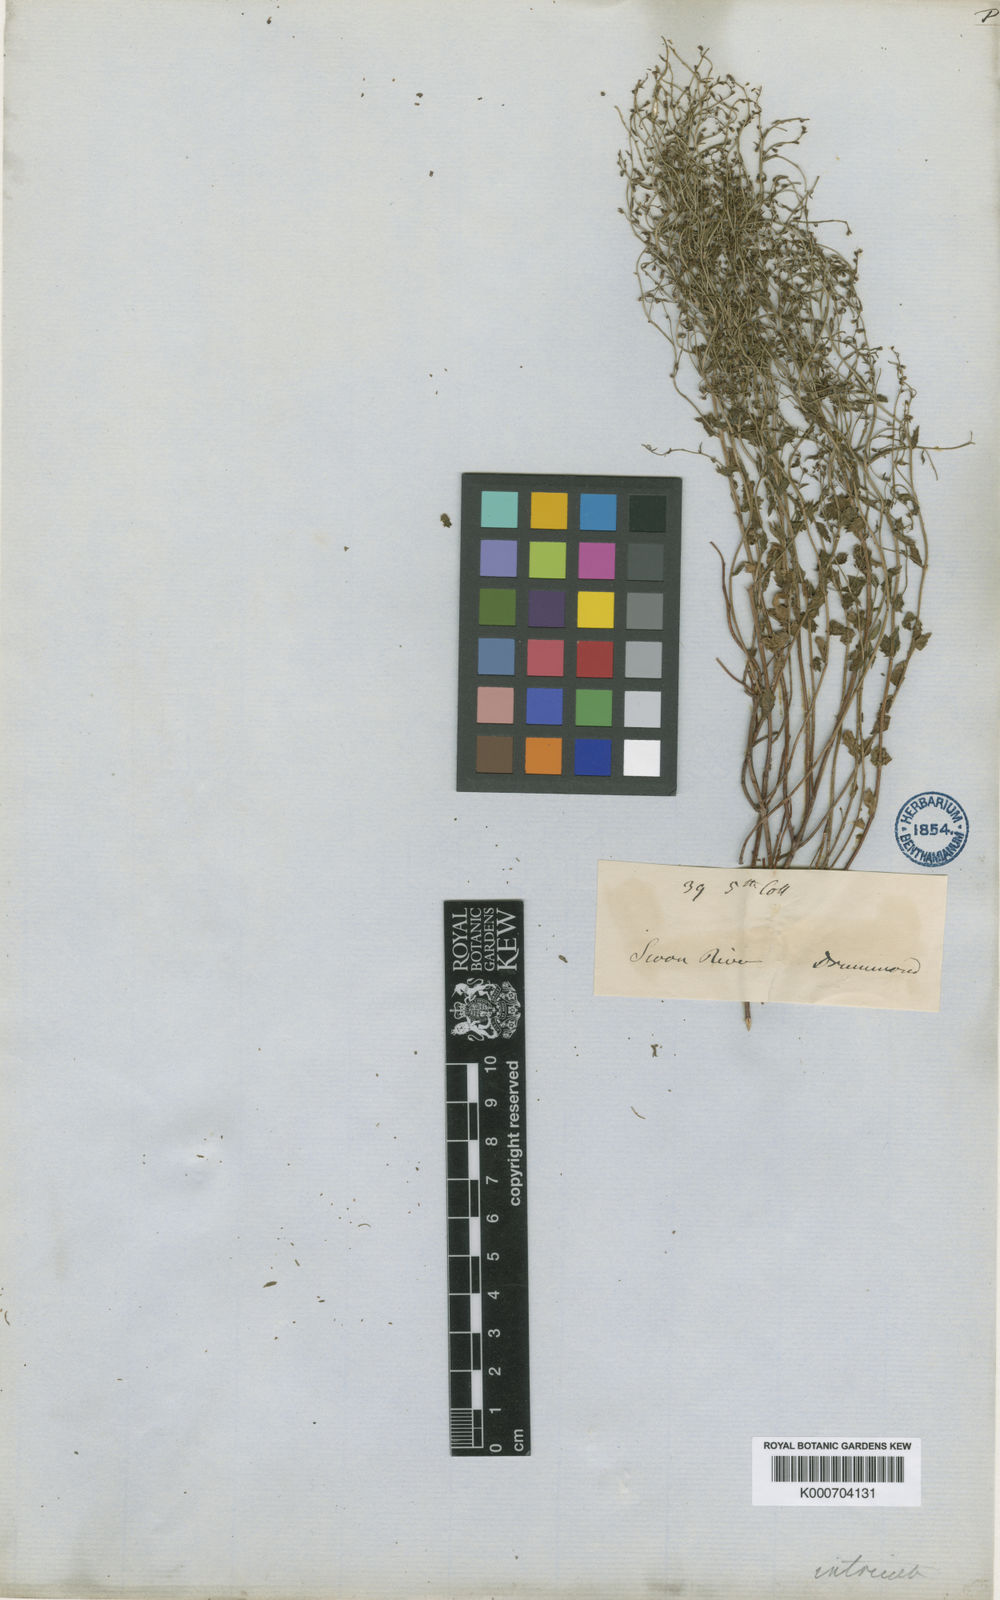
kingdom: Plantae
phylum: Tracheophyta
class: Magnoliopsida
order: Saxifragales
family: Haloragaceae
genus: Gonocarpus
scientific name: Gonocarpus intricatus
